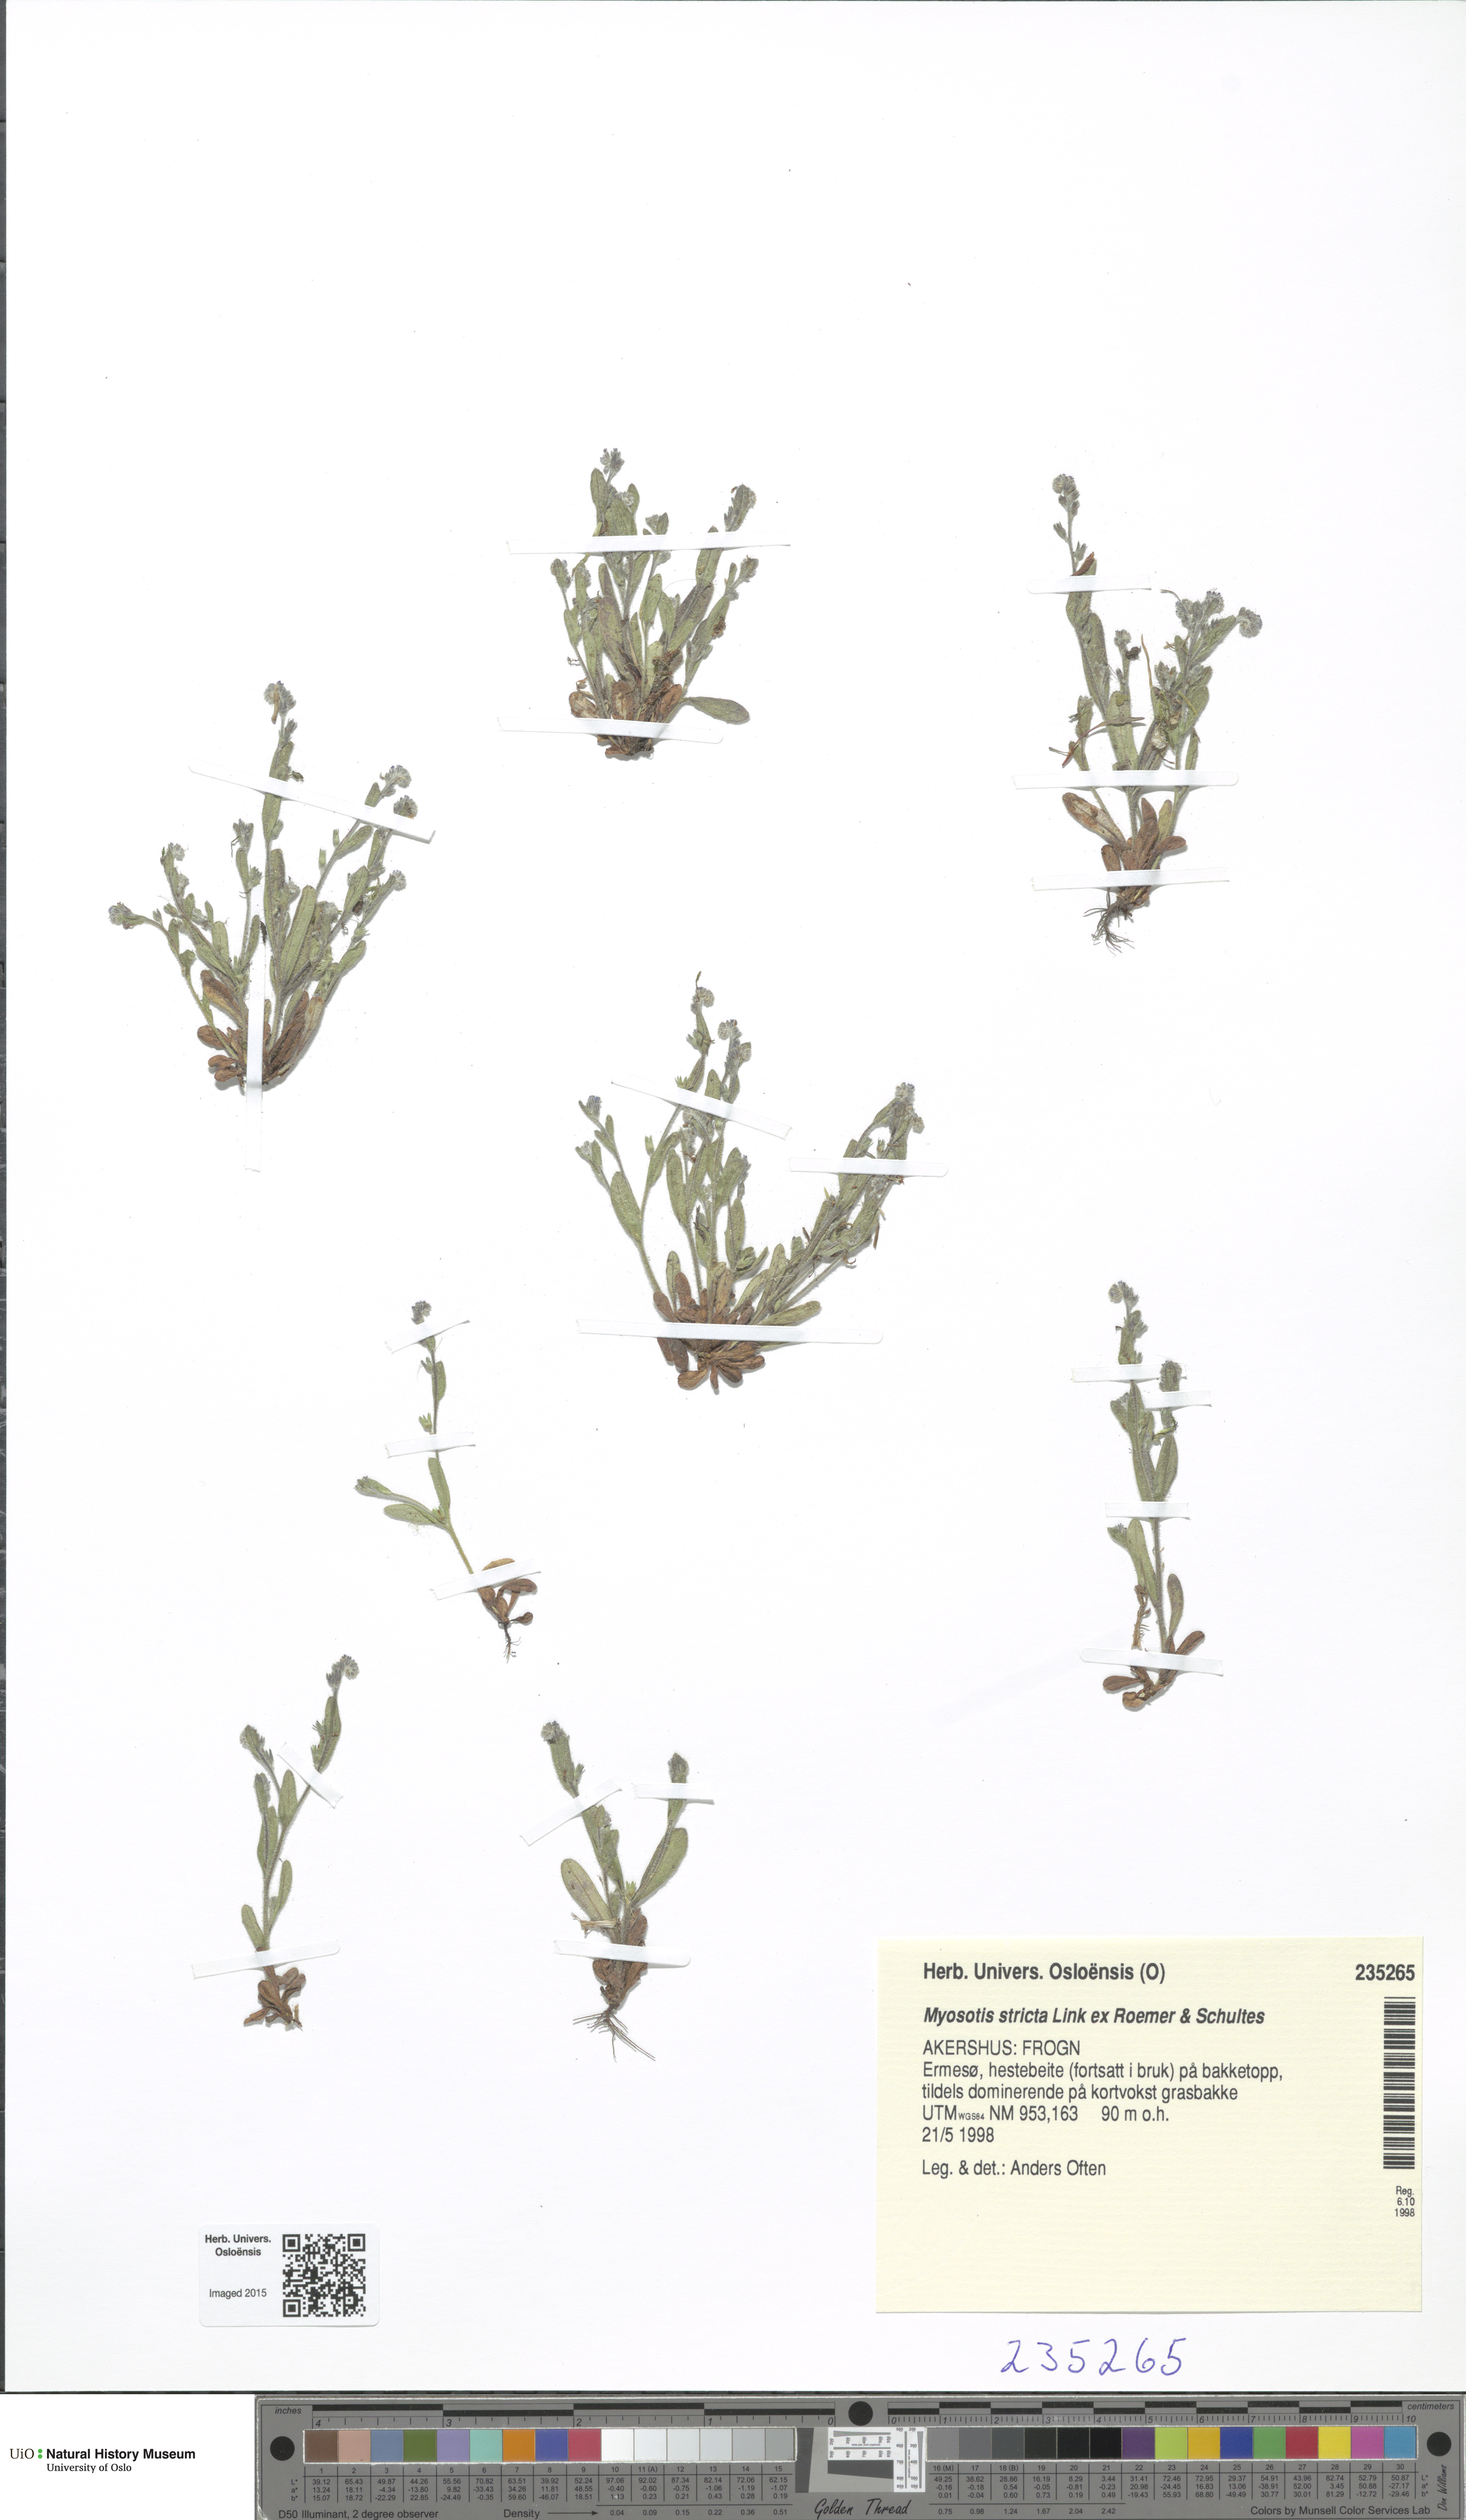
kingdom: Plantae
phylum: Tracheophyta
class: Magnoliopsida
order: Boraginales
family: Boraginaceae
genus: Myosotis
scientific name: Myosotis stricta
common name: Strict forget-me-not
